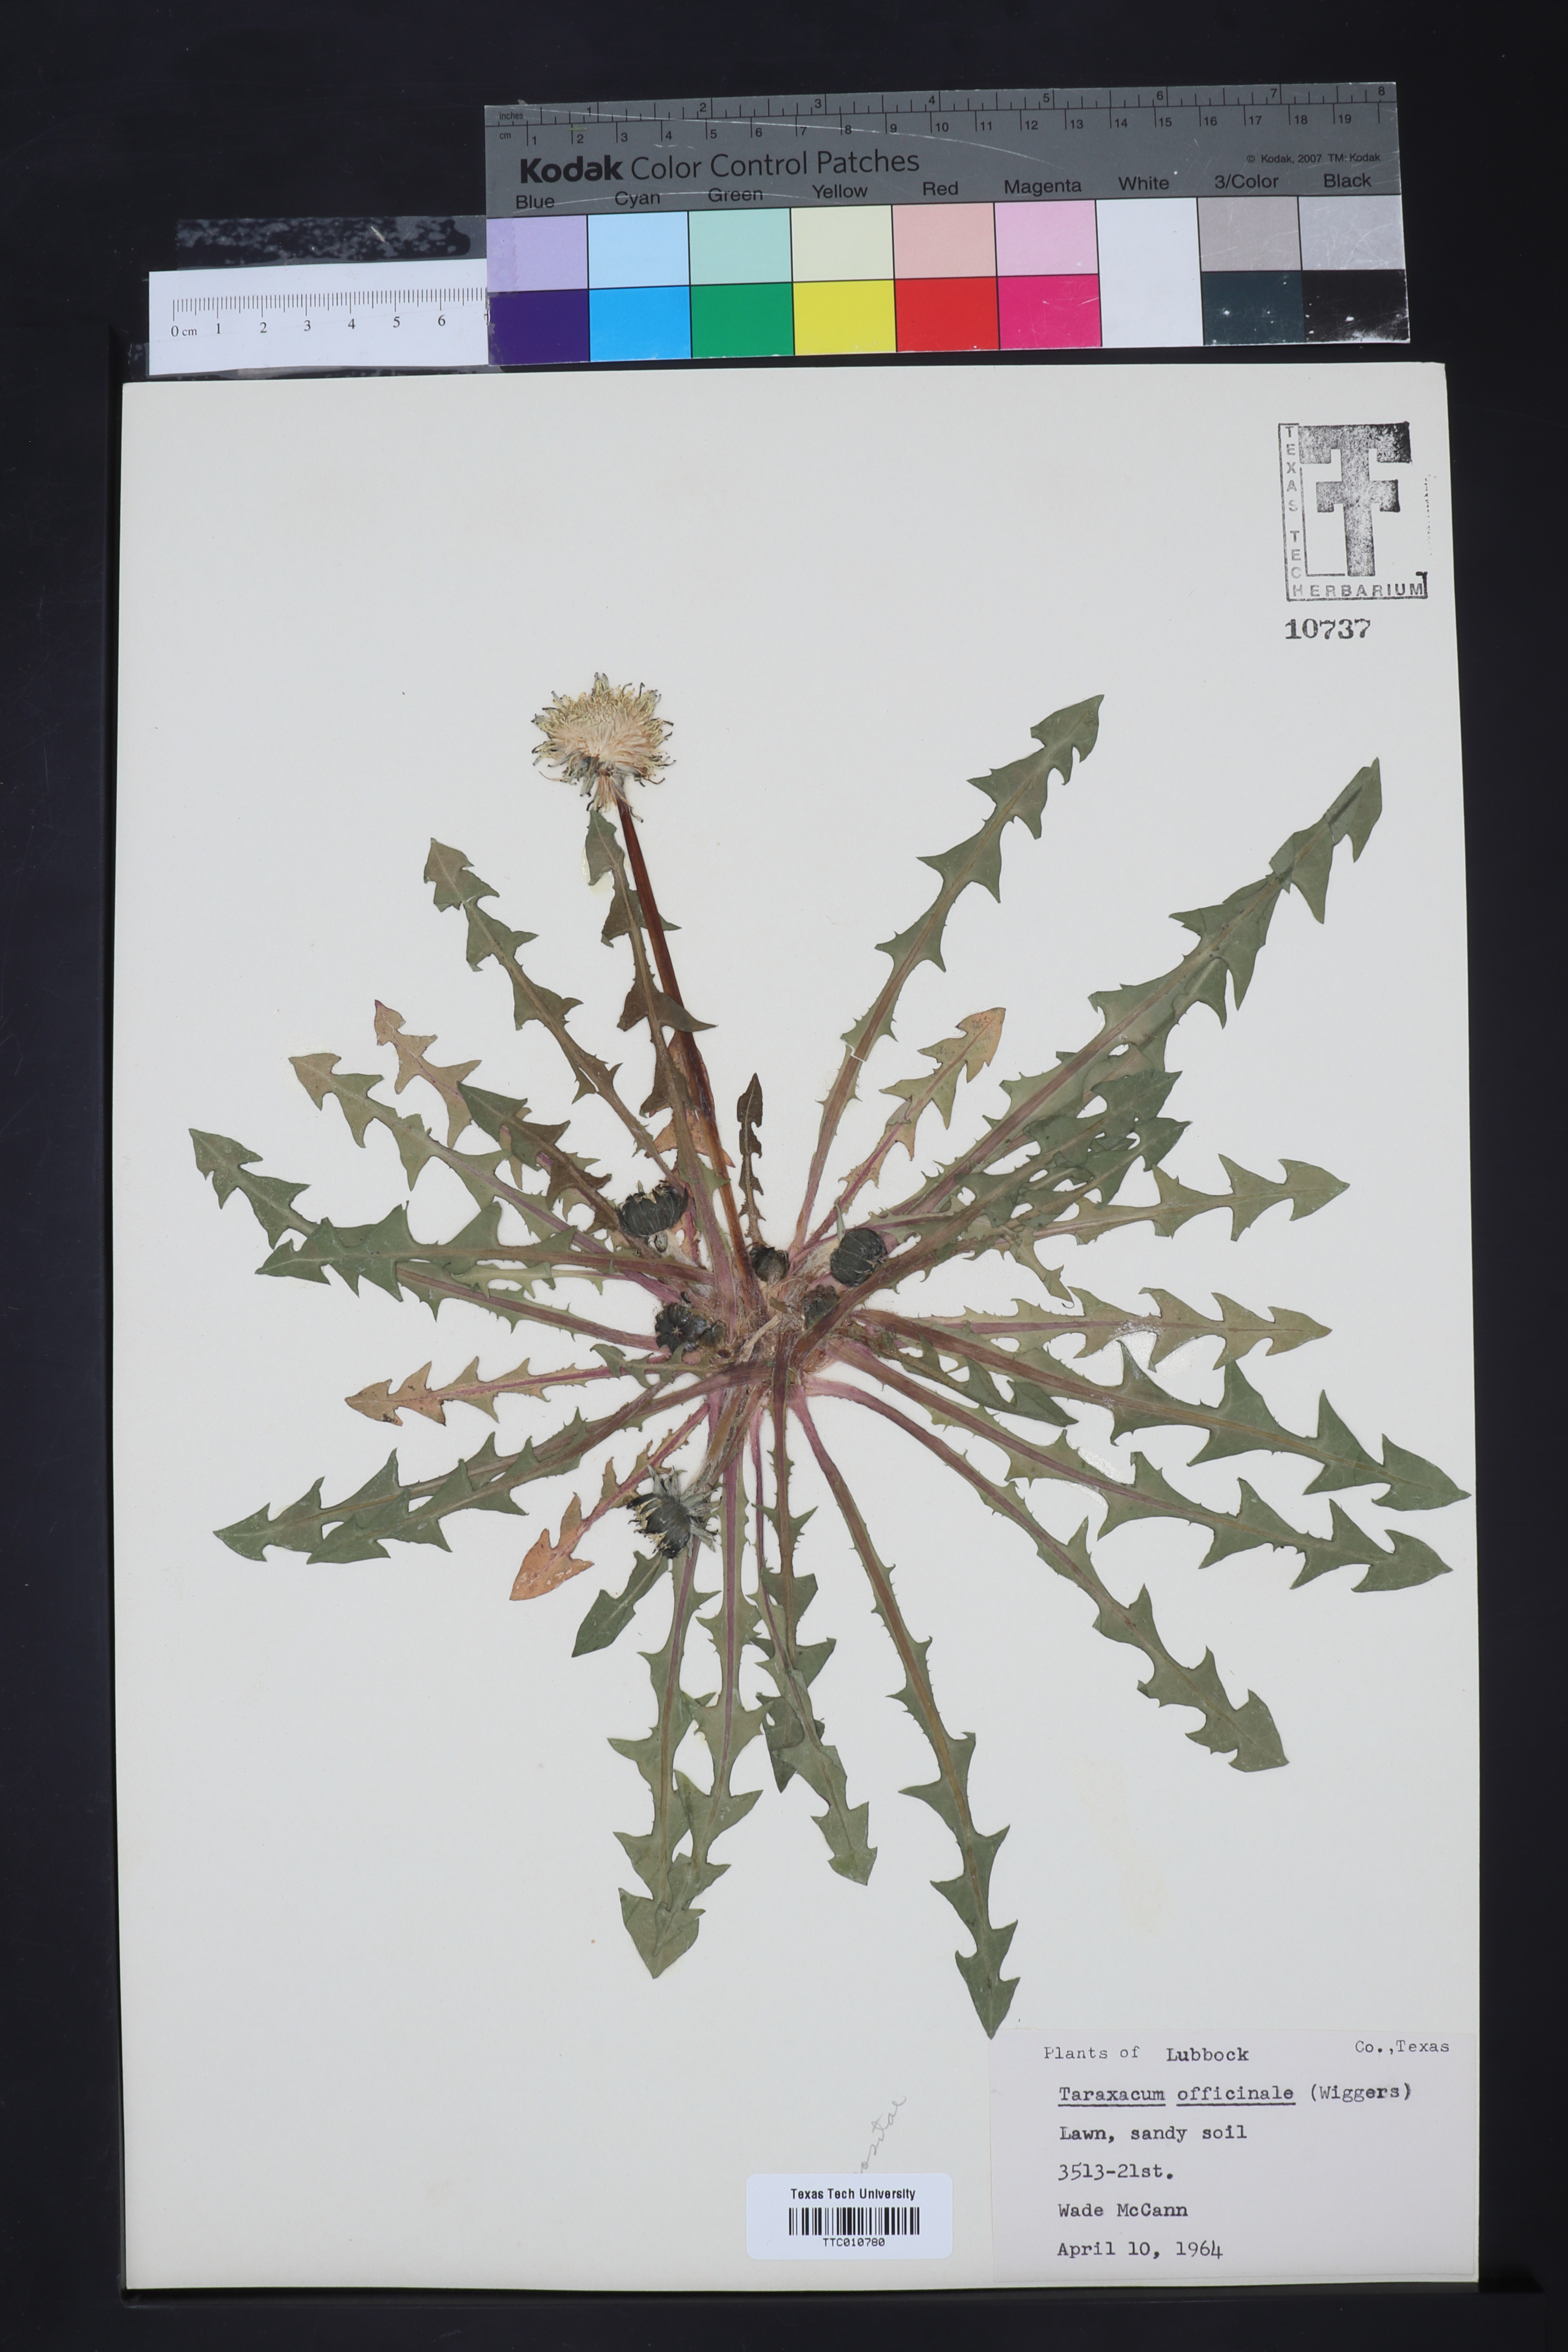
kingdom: Plantae
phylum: Tracheophyta
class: Magnoliopsida
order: Asterales
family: Asteraceae
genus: Taraxacum
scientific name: Taraxacum officinale
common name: Common dandelion
